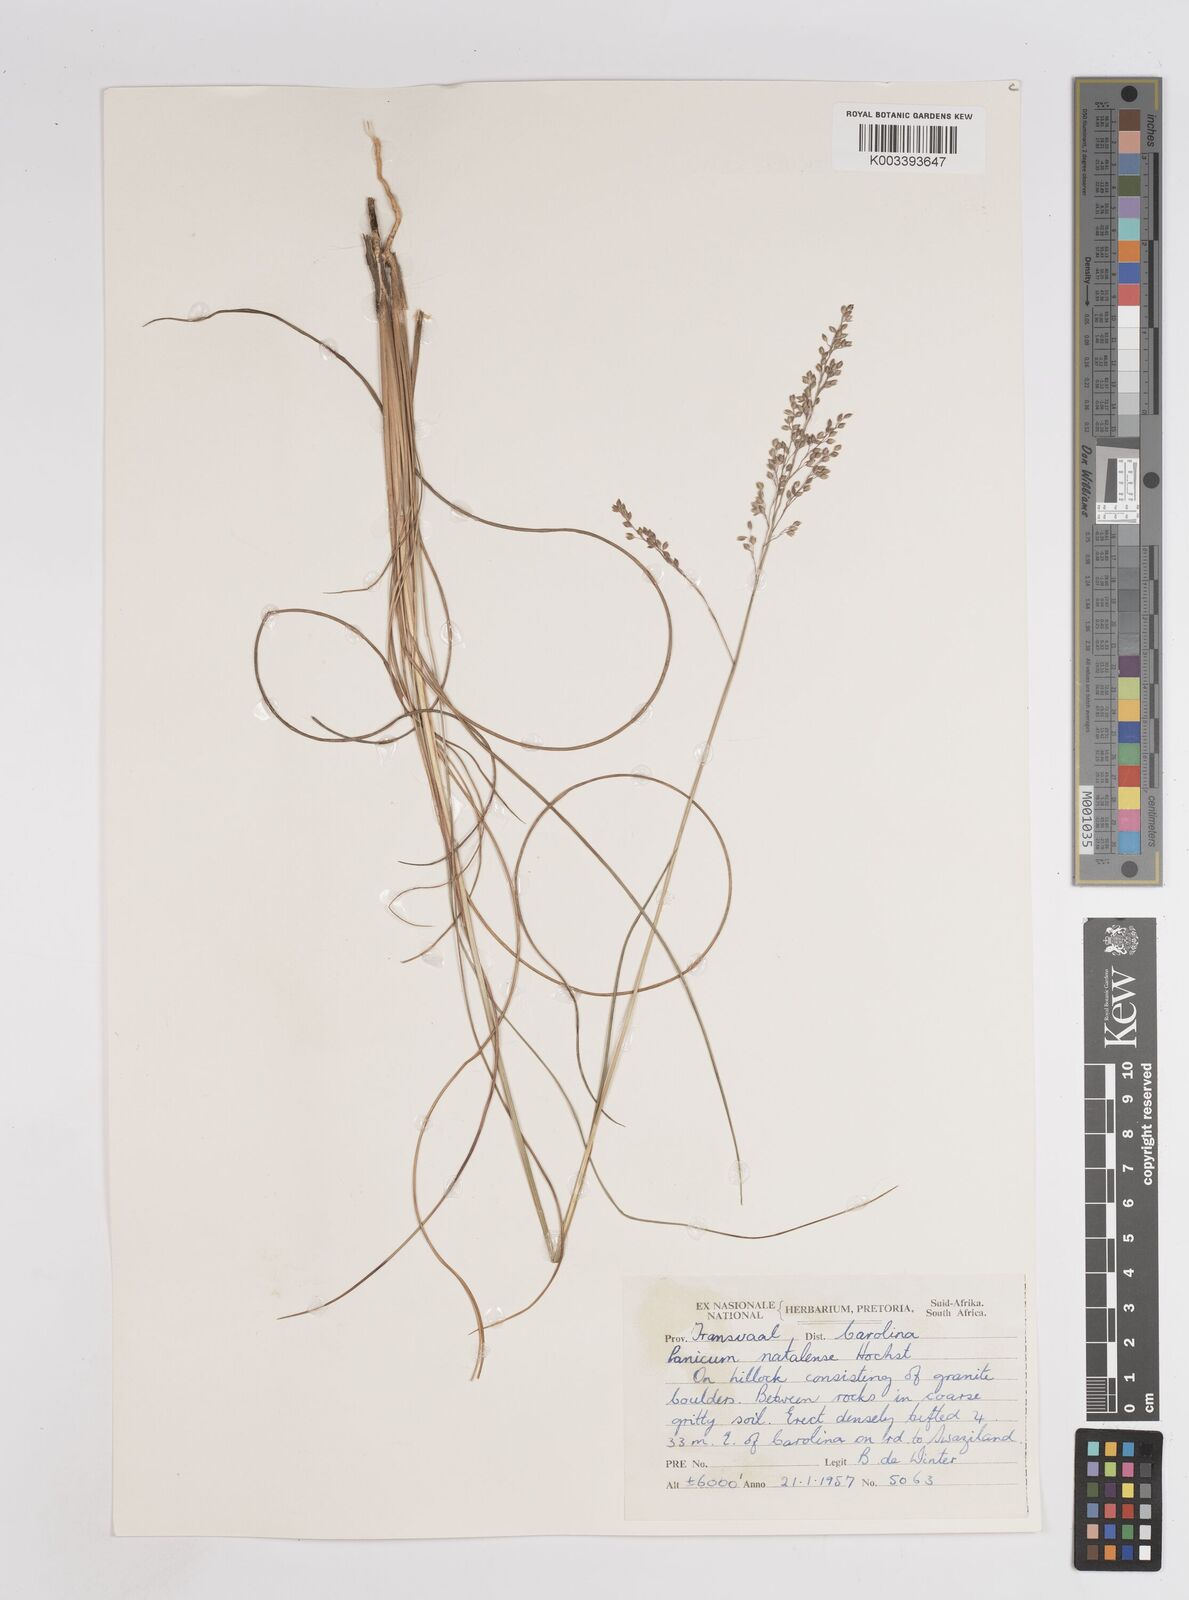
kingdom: Plantae
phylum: Tracheophyta
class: Liliopsida
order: Poales
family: Poaceae
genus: Trichanthecium
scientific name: Trichanthecium natalense
